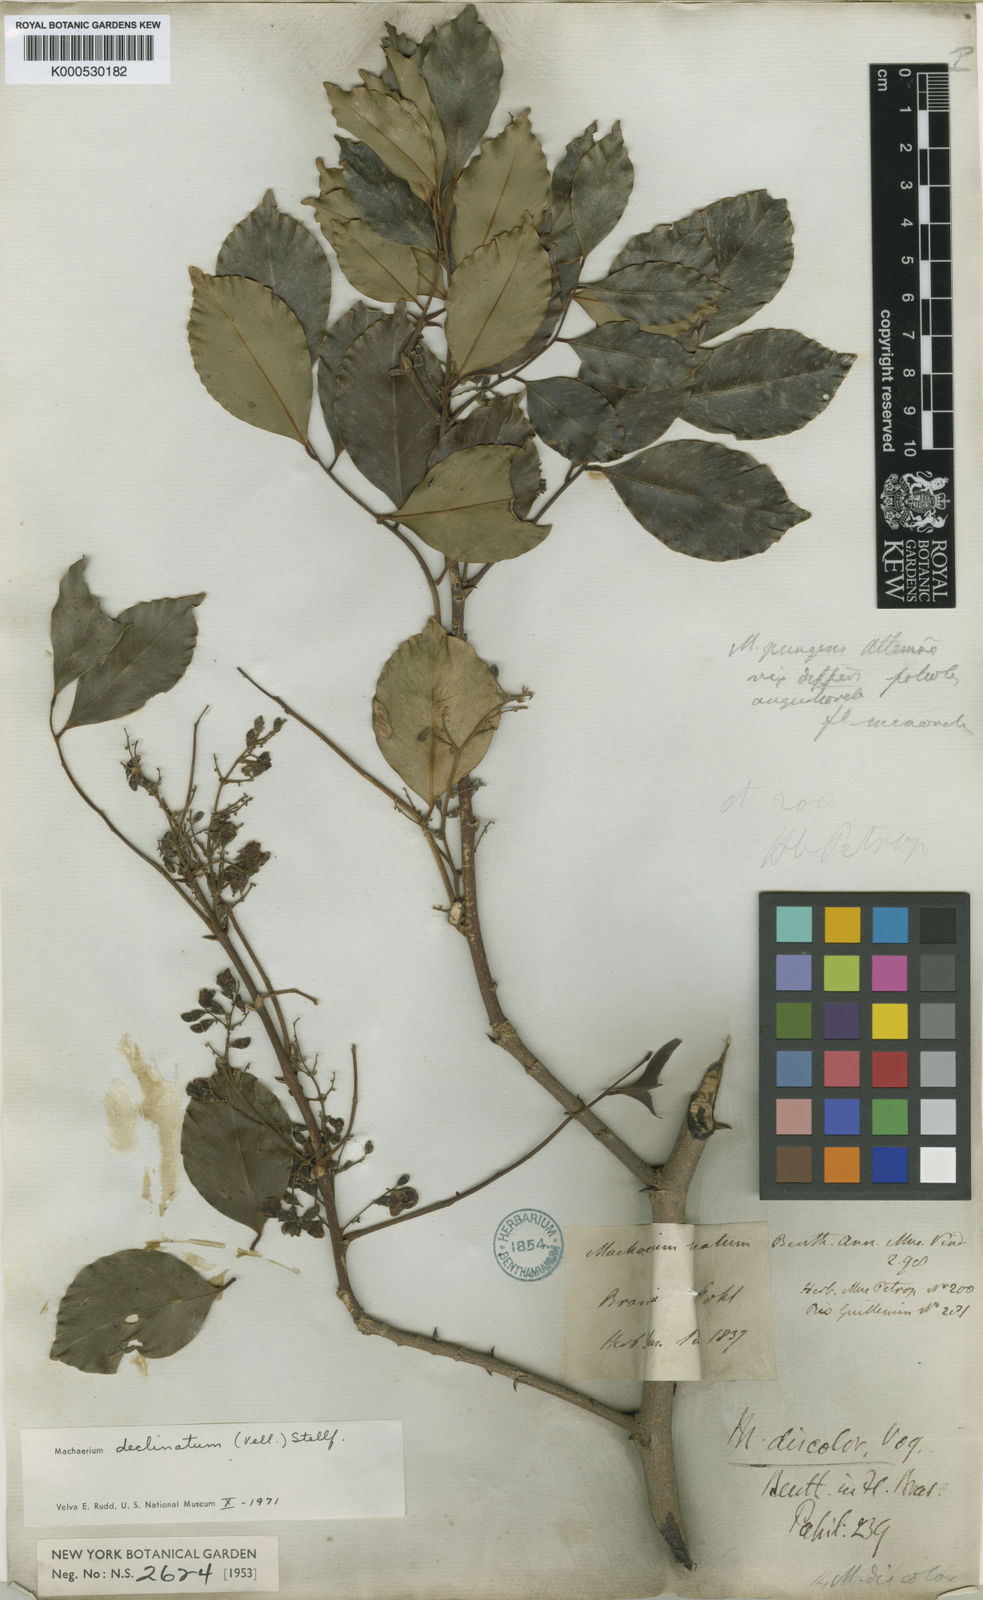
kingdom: Plantae
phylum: Tracheophyta
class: Magnoliopsida
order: Fabales
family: Fabaceae
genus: Machaerium
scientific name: Machaerium declinatum
